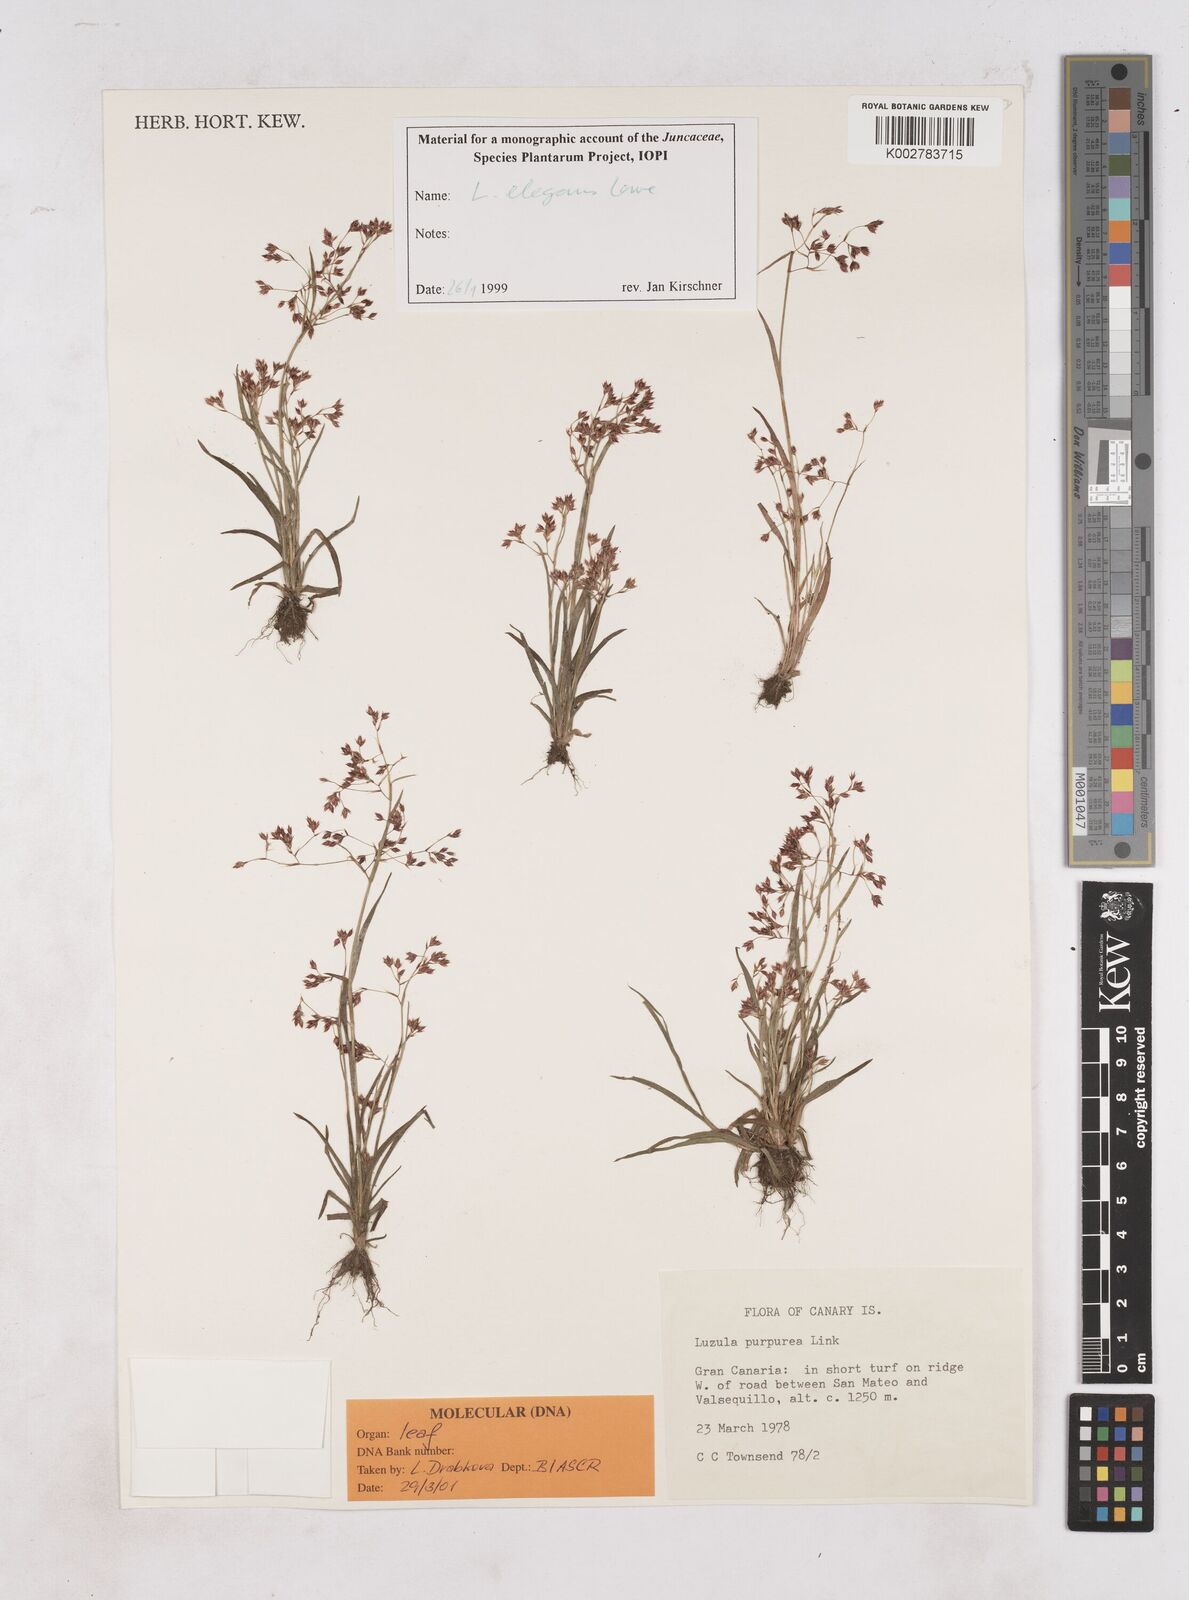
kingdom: Plantae
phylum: Tracheophyta
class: Liliopsida
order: Poales
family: Juncaceae
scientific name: Juncaceae
